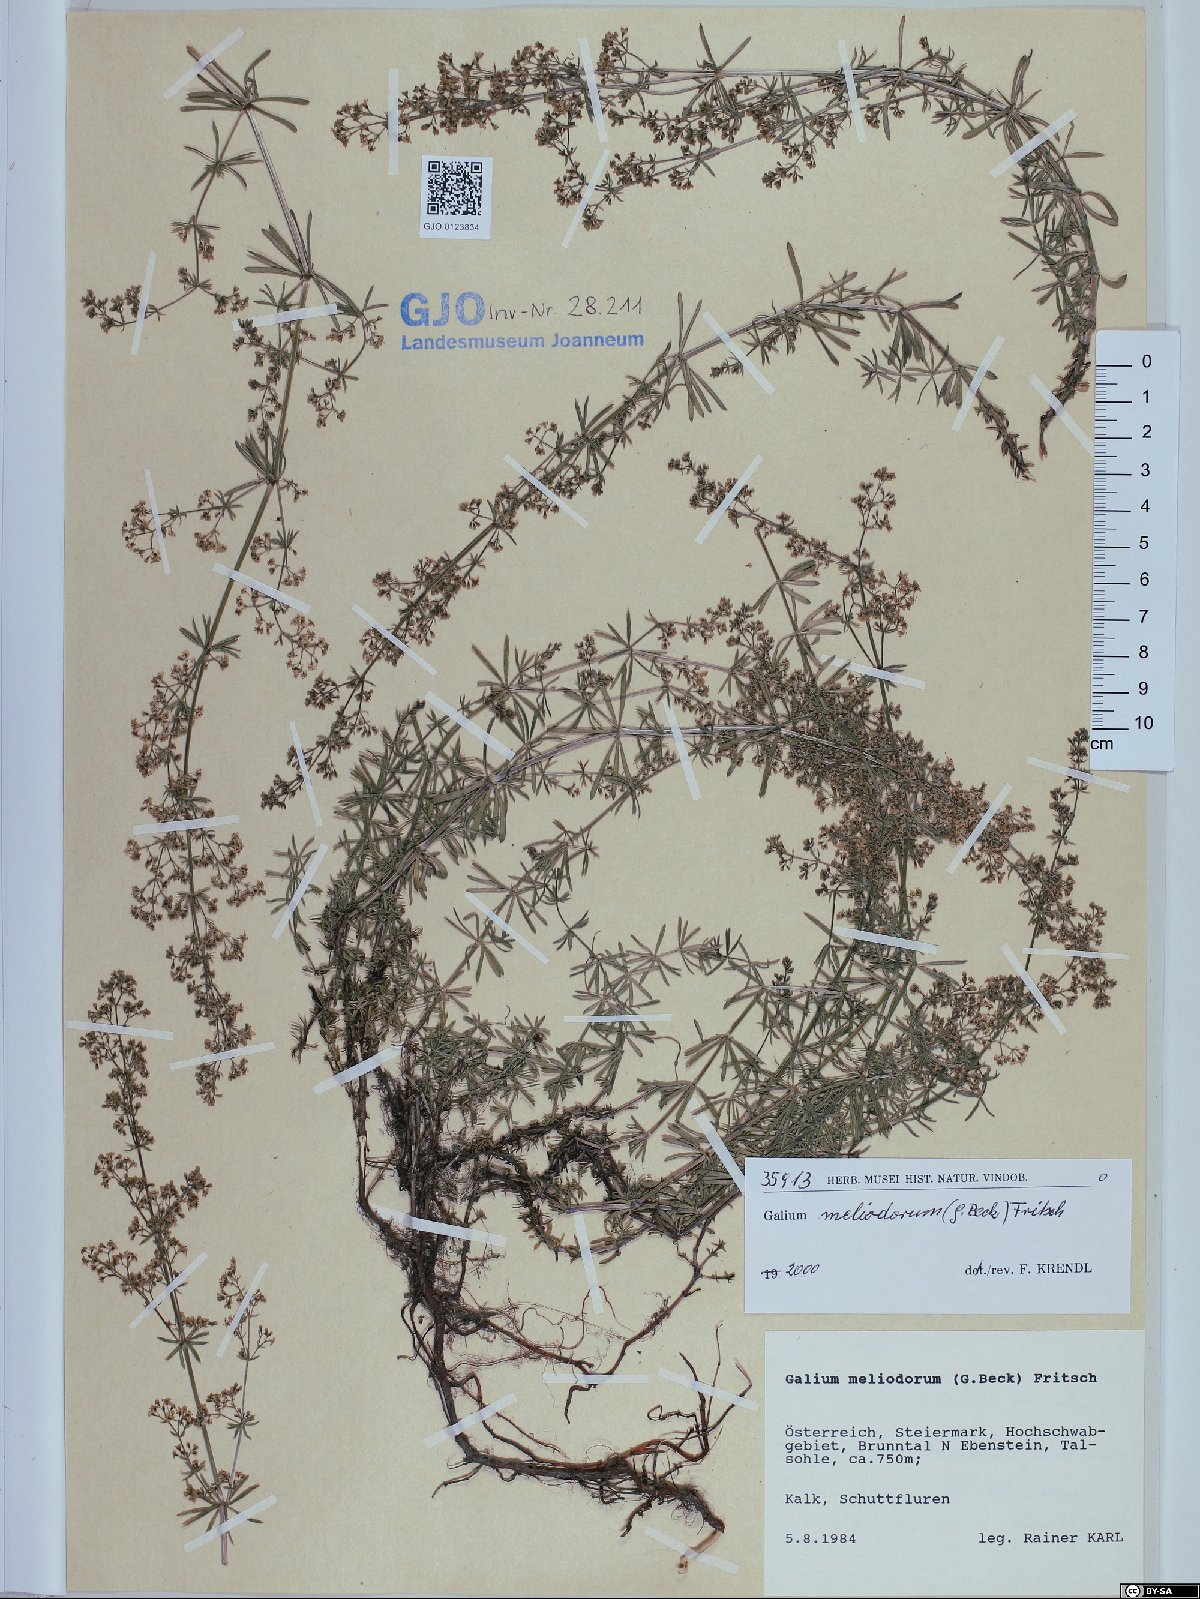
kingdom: Plantae
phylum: Tracheophyta
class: Magnoliopsida
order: Gentianales
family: Rubiaceae
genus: Galium
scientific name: Galium meliodorum
